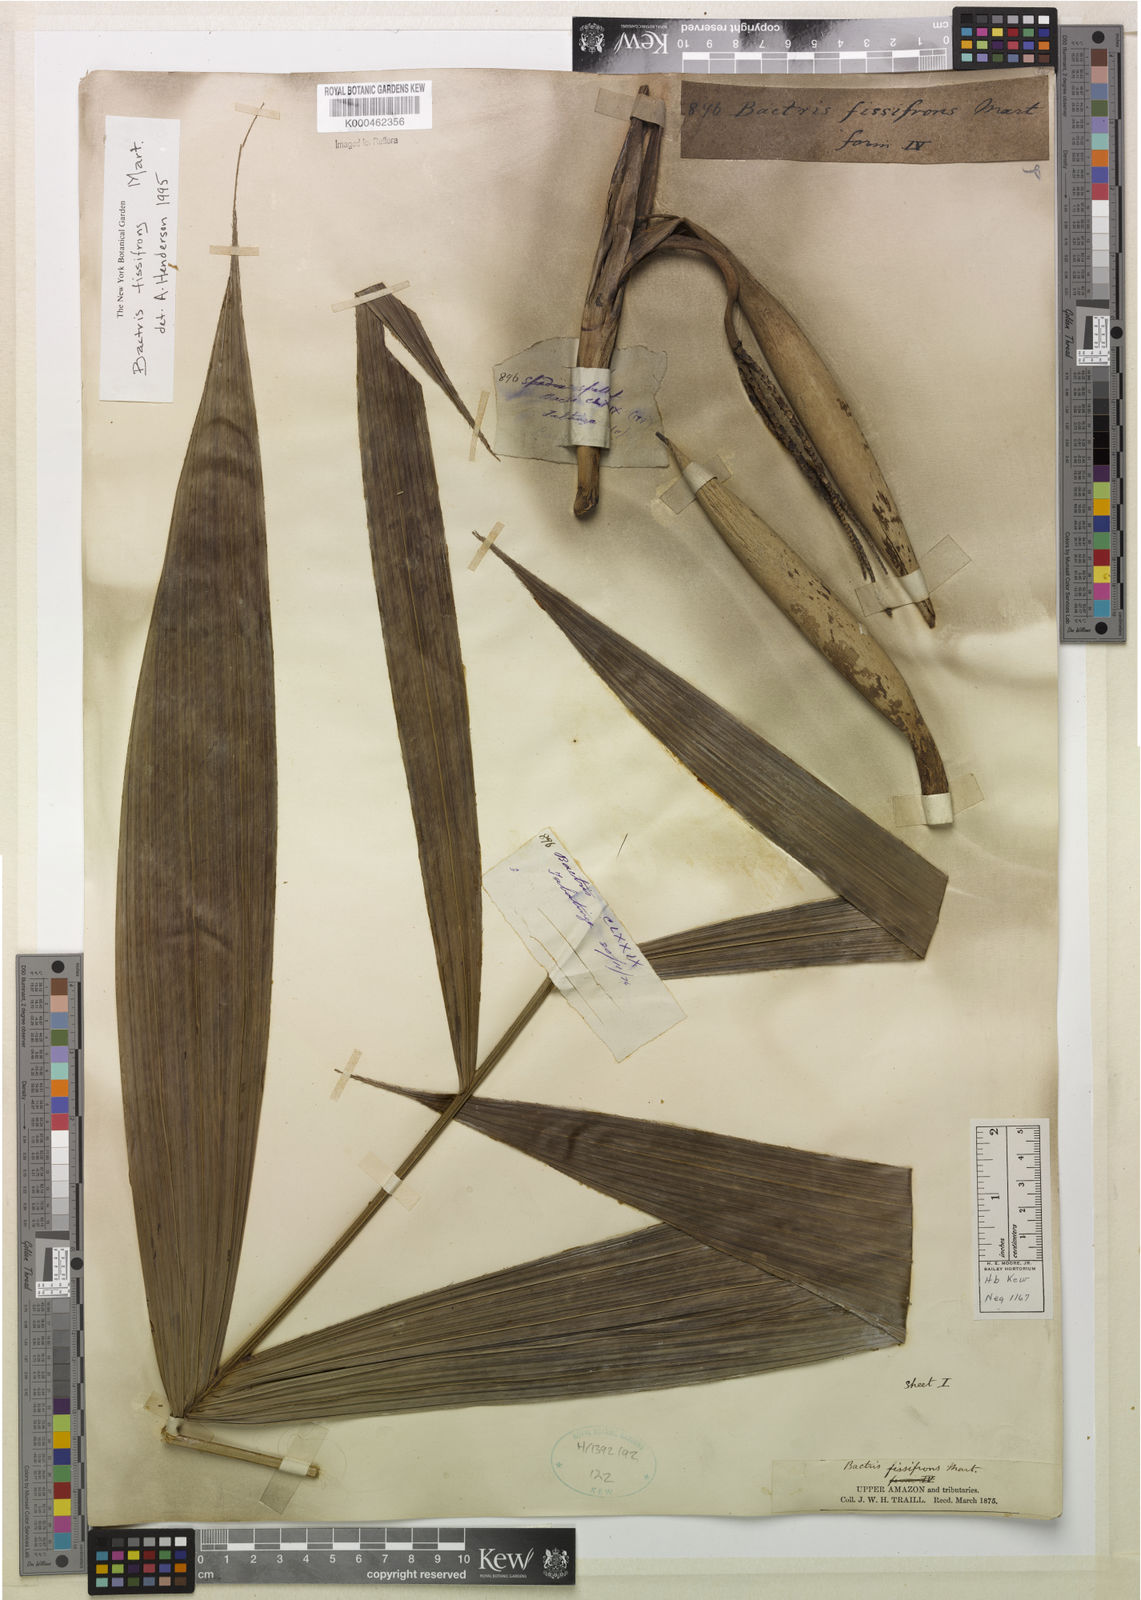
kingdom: Plantae
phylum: Tracheophyta
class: Liliopsida
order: Arecales
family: Arecaceae
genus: Bactris
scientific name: Bactris fissifrons
